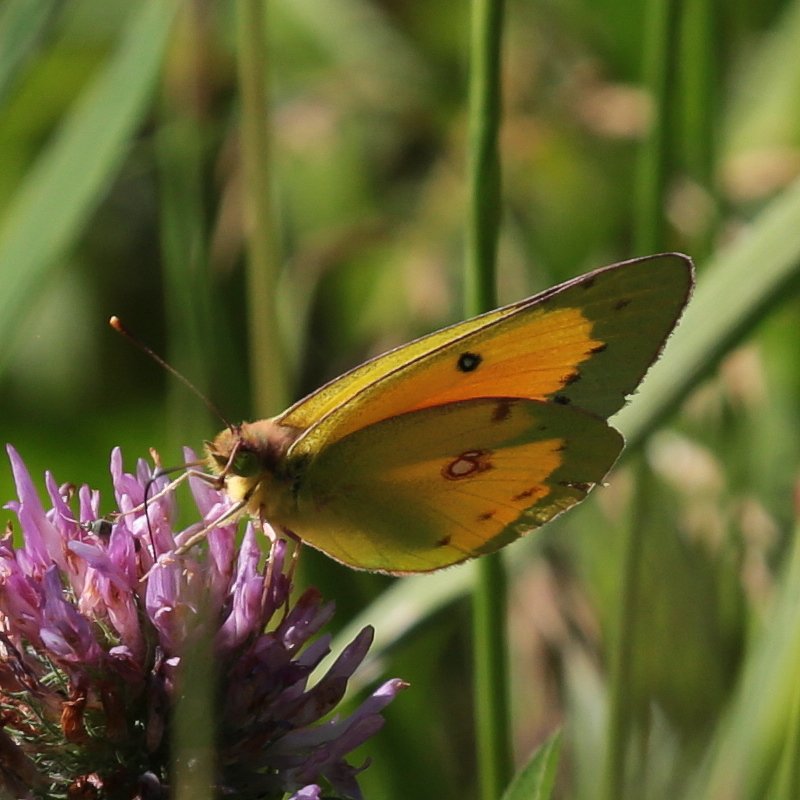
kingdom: Animalia
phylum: Arthropoda
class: Insecta
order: Lepidoptera
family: Pieridae
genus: Colias
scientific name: Colias eurytheme
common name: Orange Sulphur
